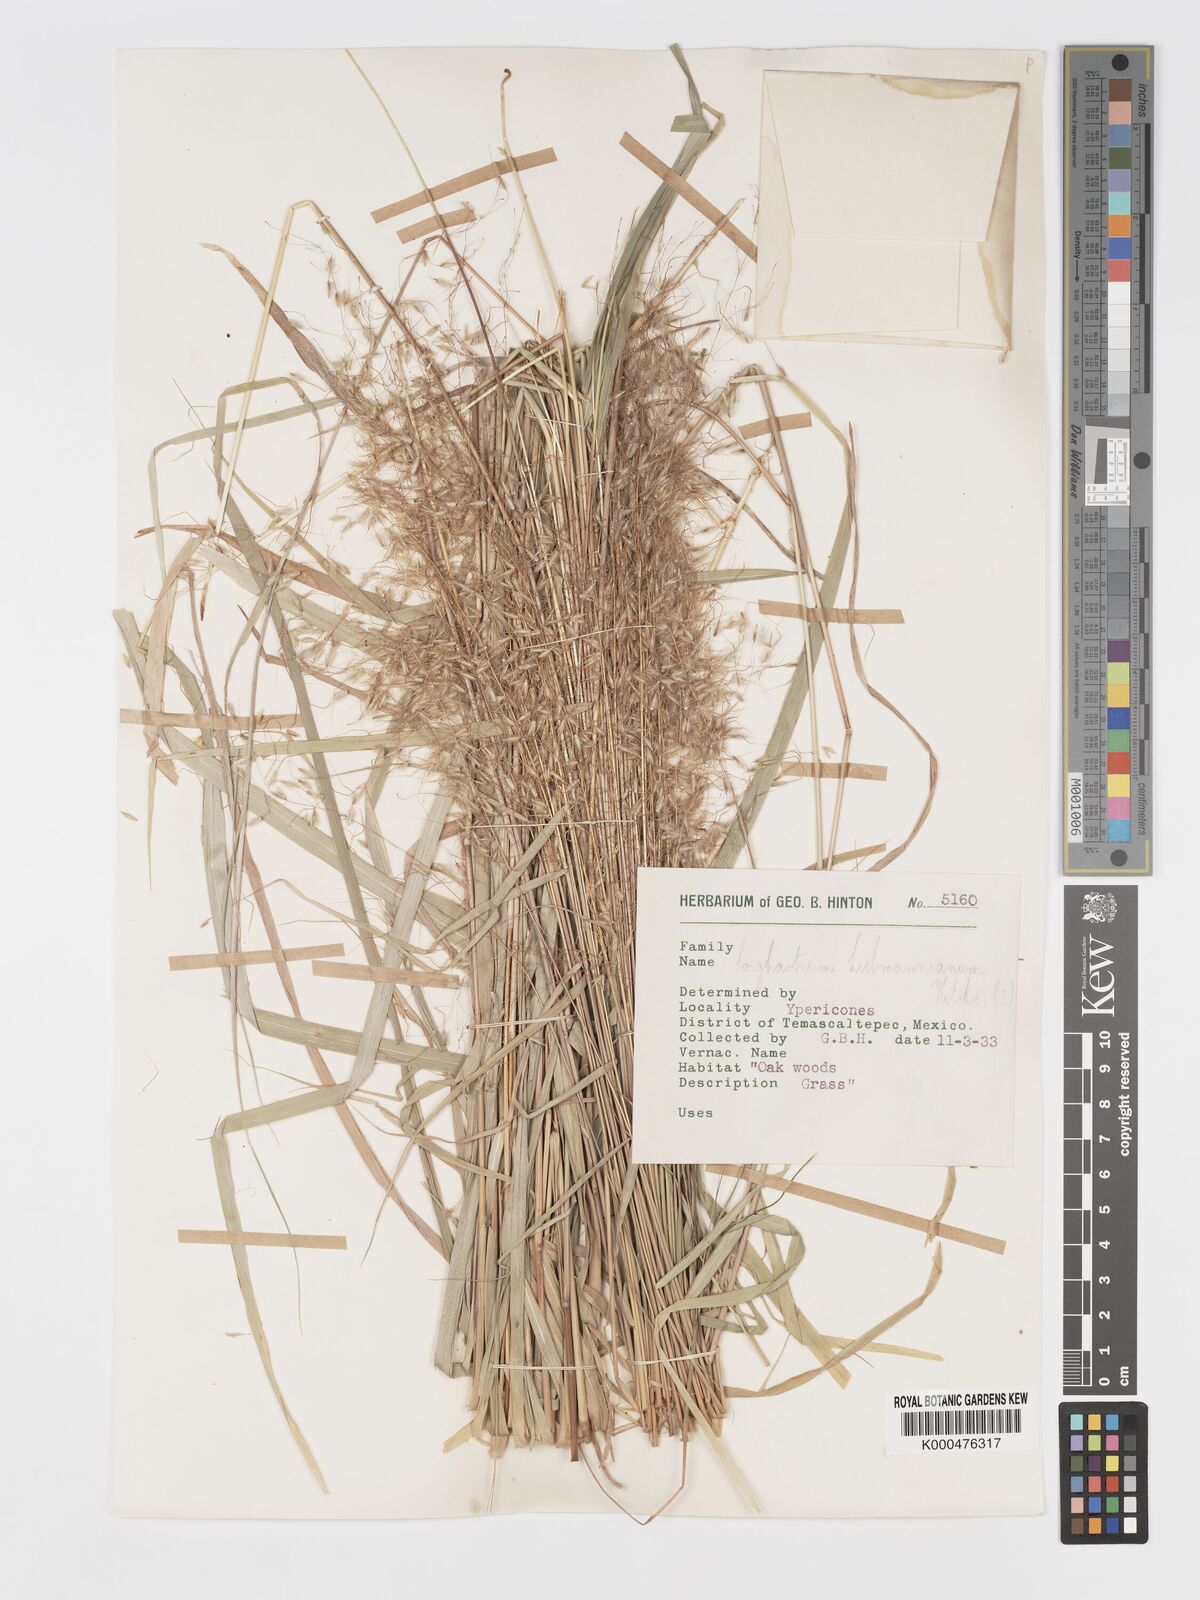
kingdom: Plantae
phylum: Tracheophyta
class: Liliopsida
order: Poales
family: Poaceae
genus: Sorghastrum
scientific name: Sorghastrum incompletum
